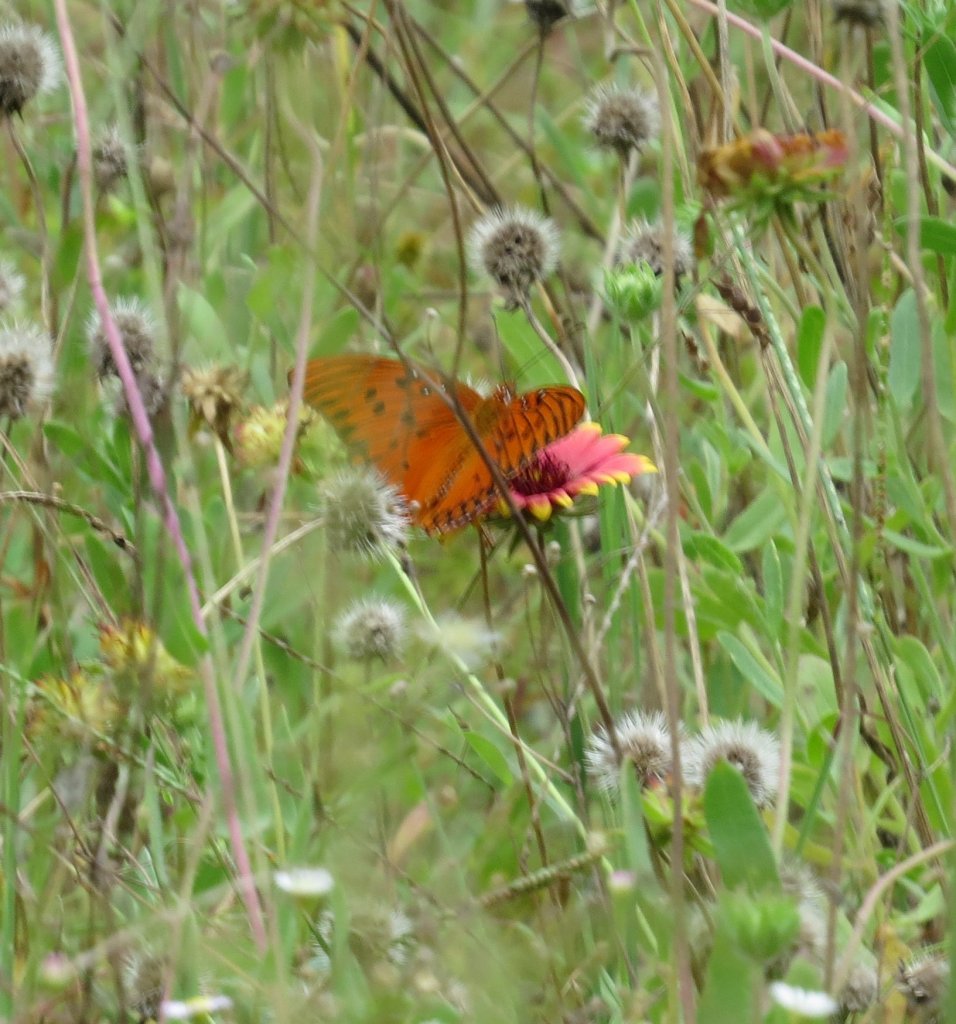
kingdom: Animalia
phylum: Arthropoda
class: Insecta
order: Lepidoptera
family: Nymphalidae
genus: Dione
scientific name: Dione vanillae
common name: Gulf Fritillary
